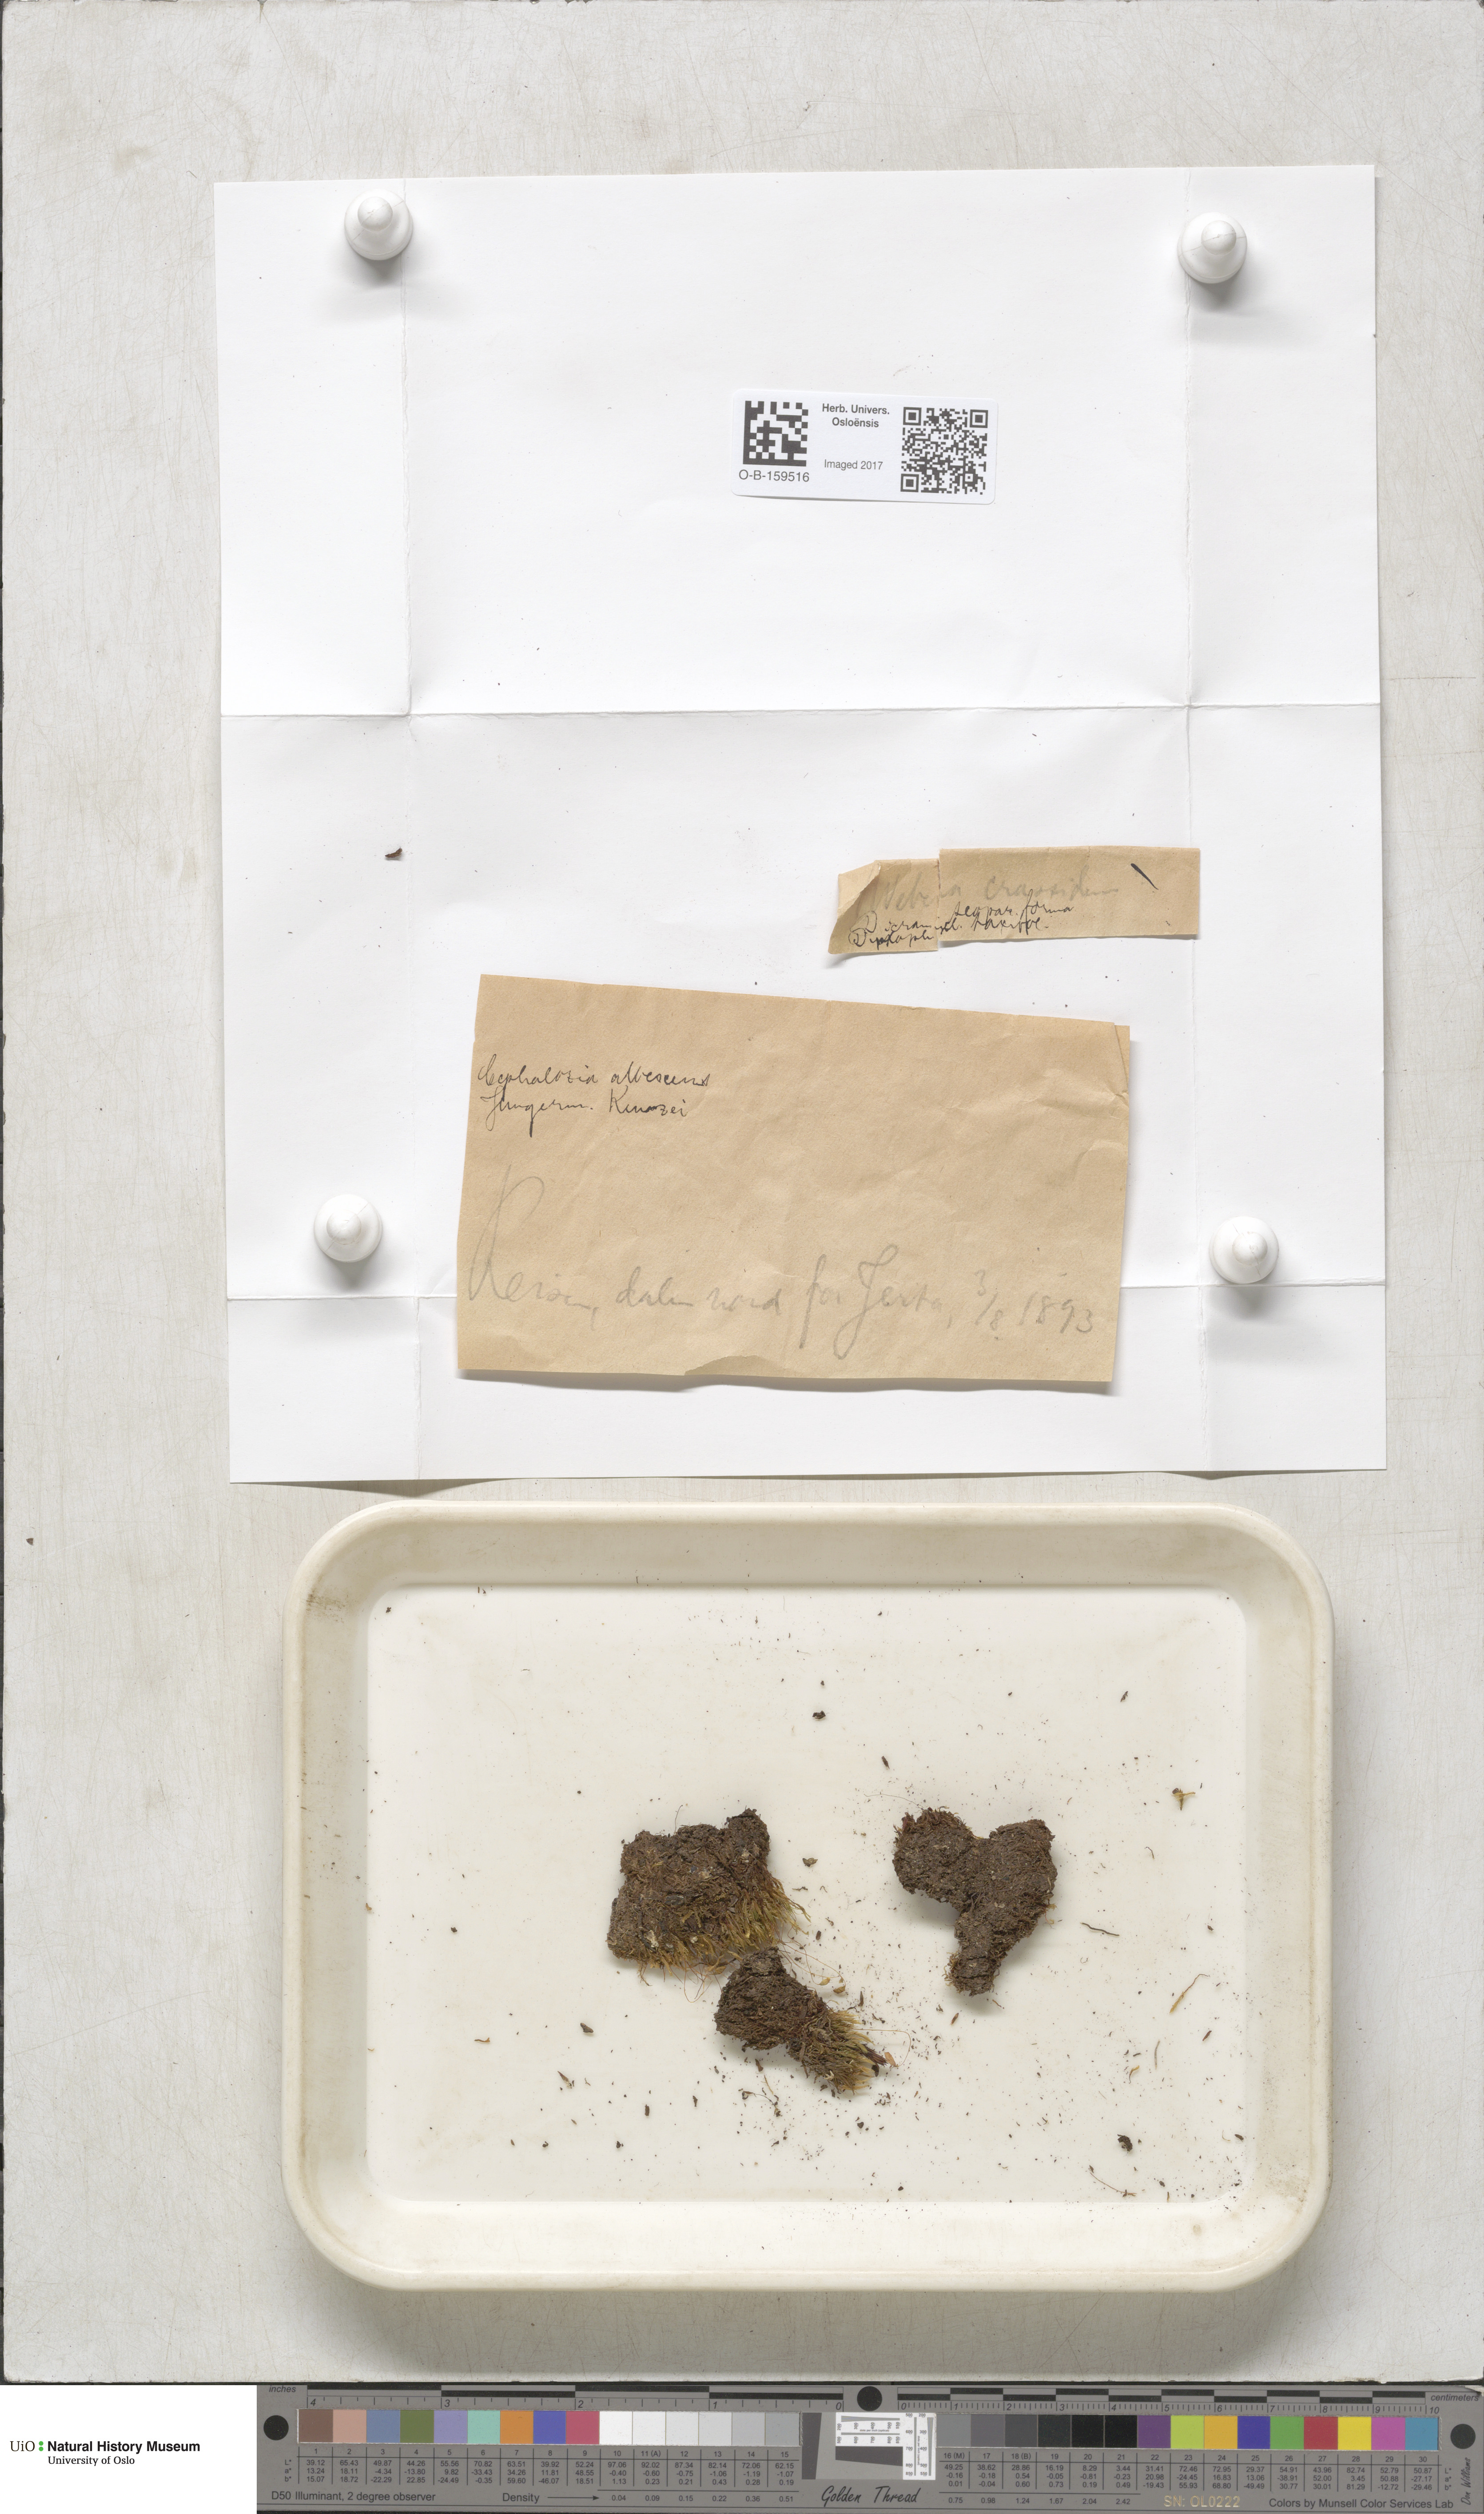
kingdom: Plantae
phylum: Bryophyta
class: Bryopsida
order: Bryales
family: Mniaceae
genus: Pohlia
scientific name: Pohlia crudoides
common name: Pipe nodding moss
